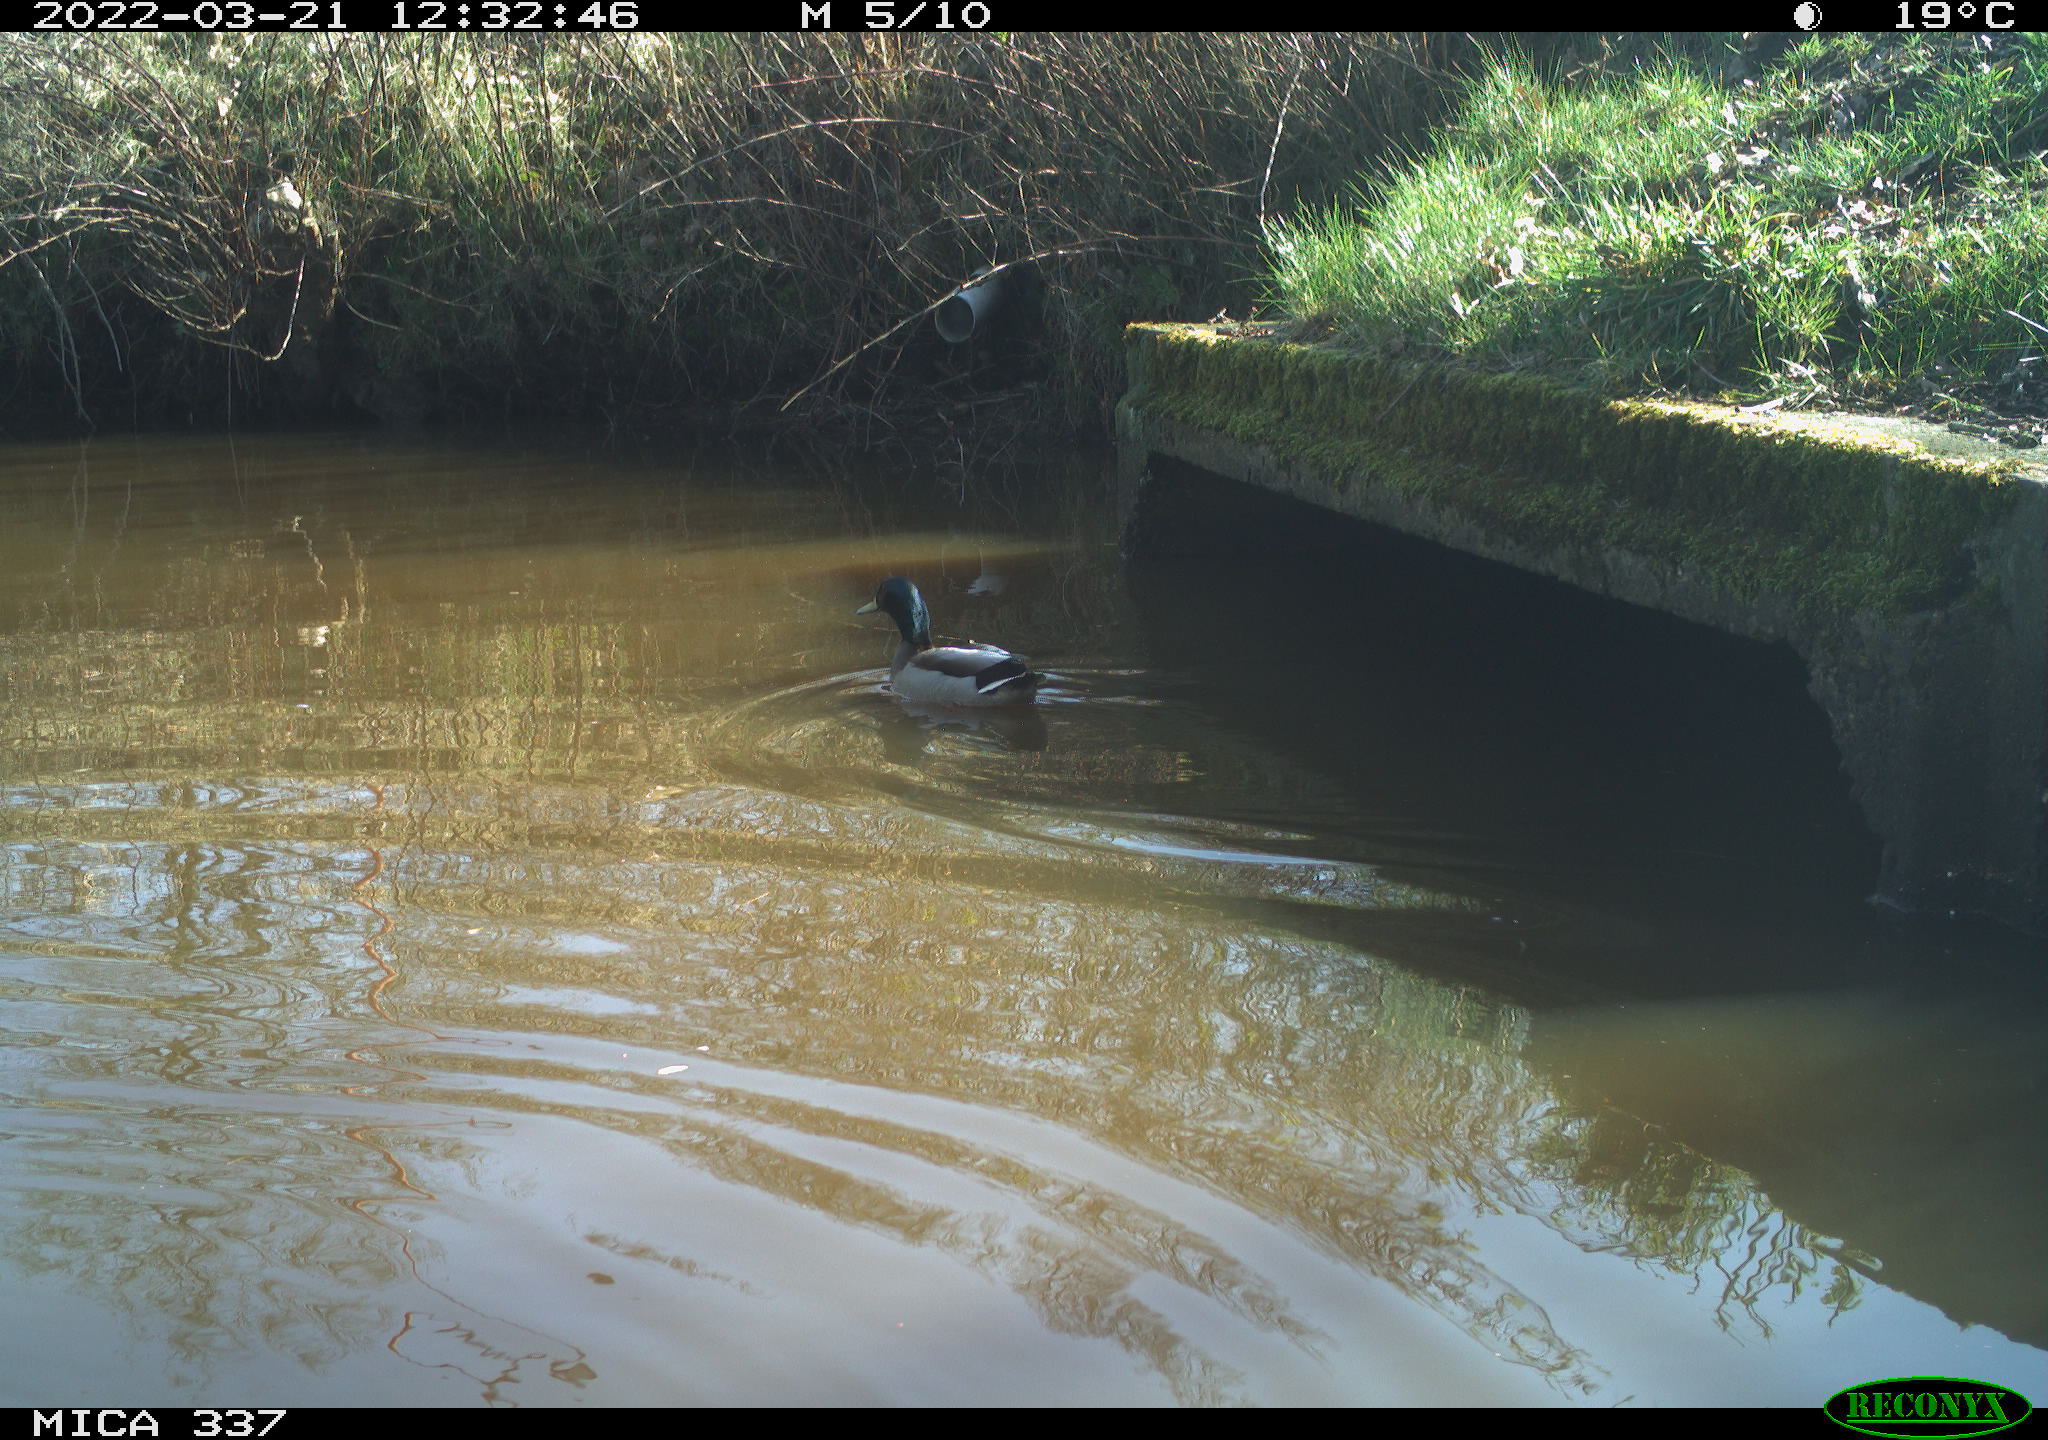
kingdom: Animalia
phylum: Chordata
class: Aves
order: Anseriformes
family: Anatidae
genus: Anas
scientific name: Anas platyrhynchos
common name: Mallard
